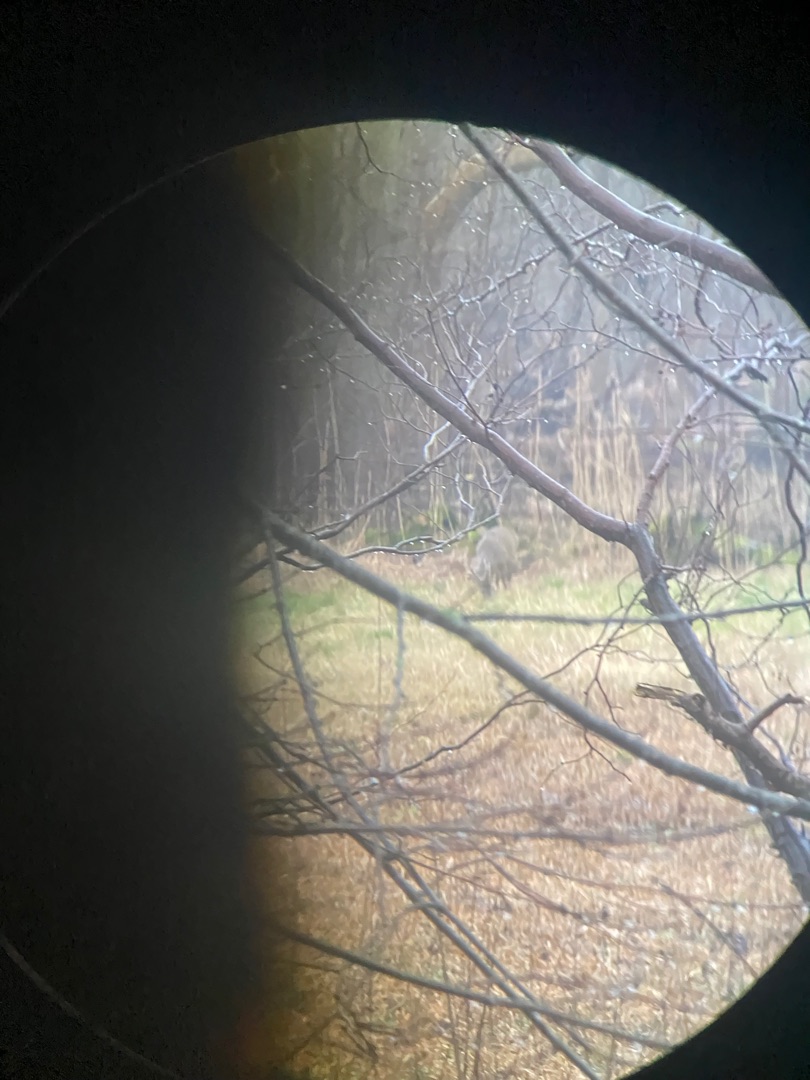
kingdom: Animalia
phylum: Chordata
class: Mammalia
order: Artiodactyla
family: Cervidae
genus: Capreolus
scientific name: Capreolus capreolus
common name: Rådyr
